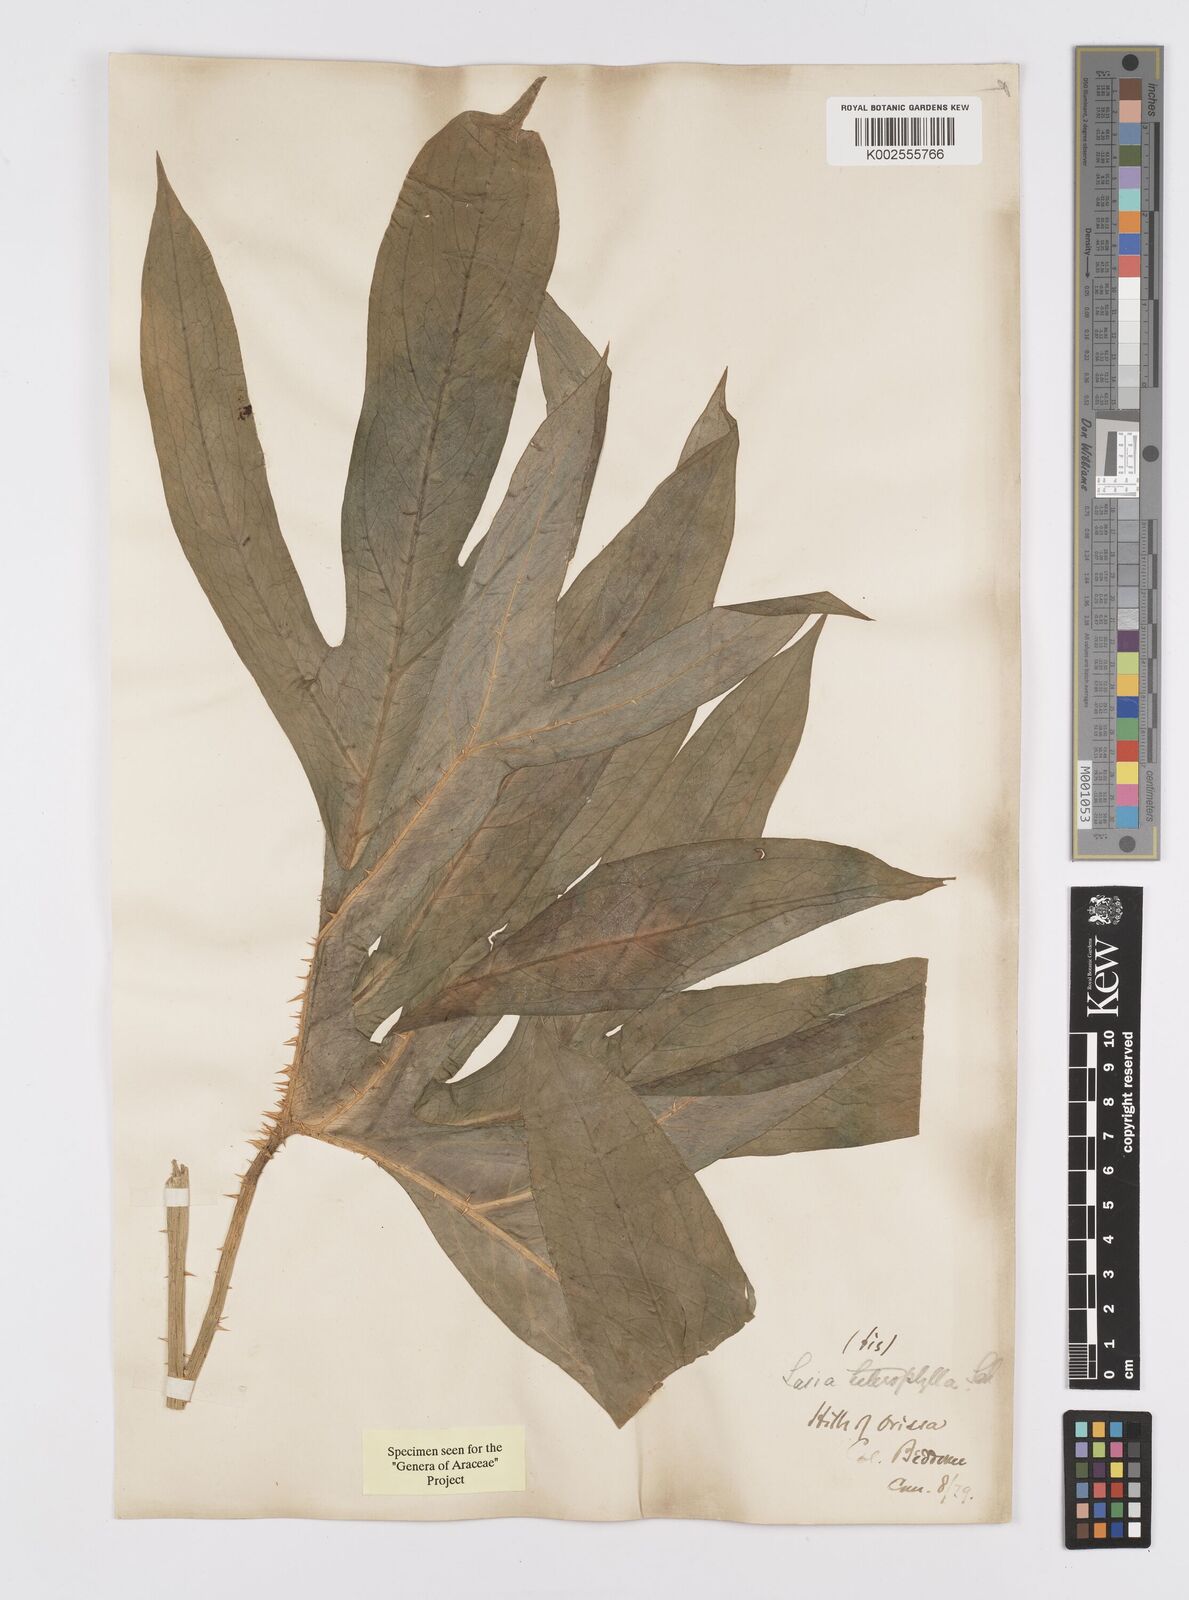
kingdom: Plantae
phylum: Tracheophyta
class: Liliopsida
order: Alismatales
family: Araceae
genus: Lasia
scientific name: Lasia spinosa
